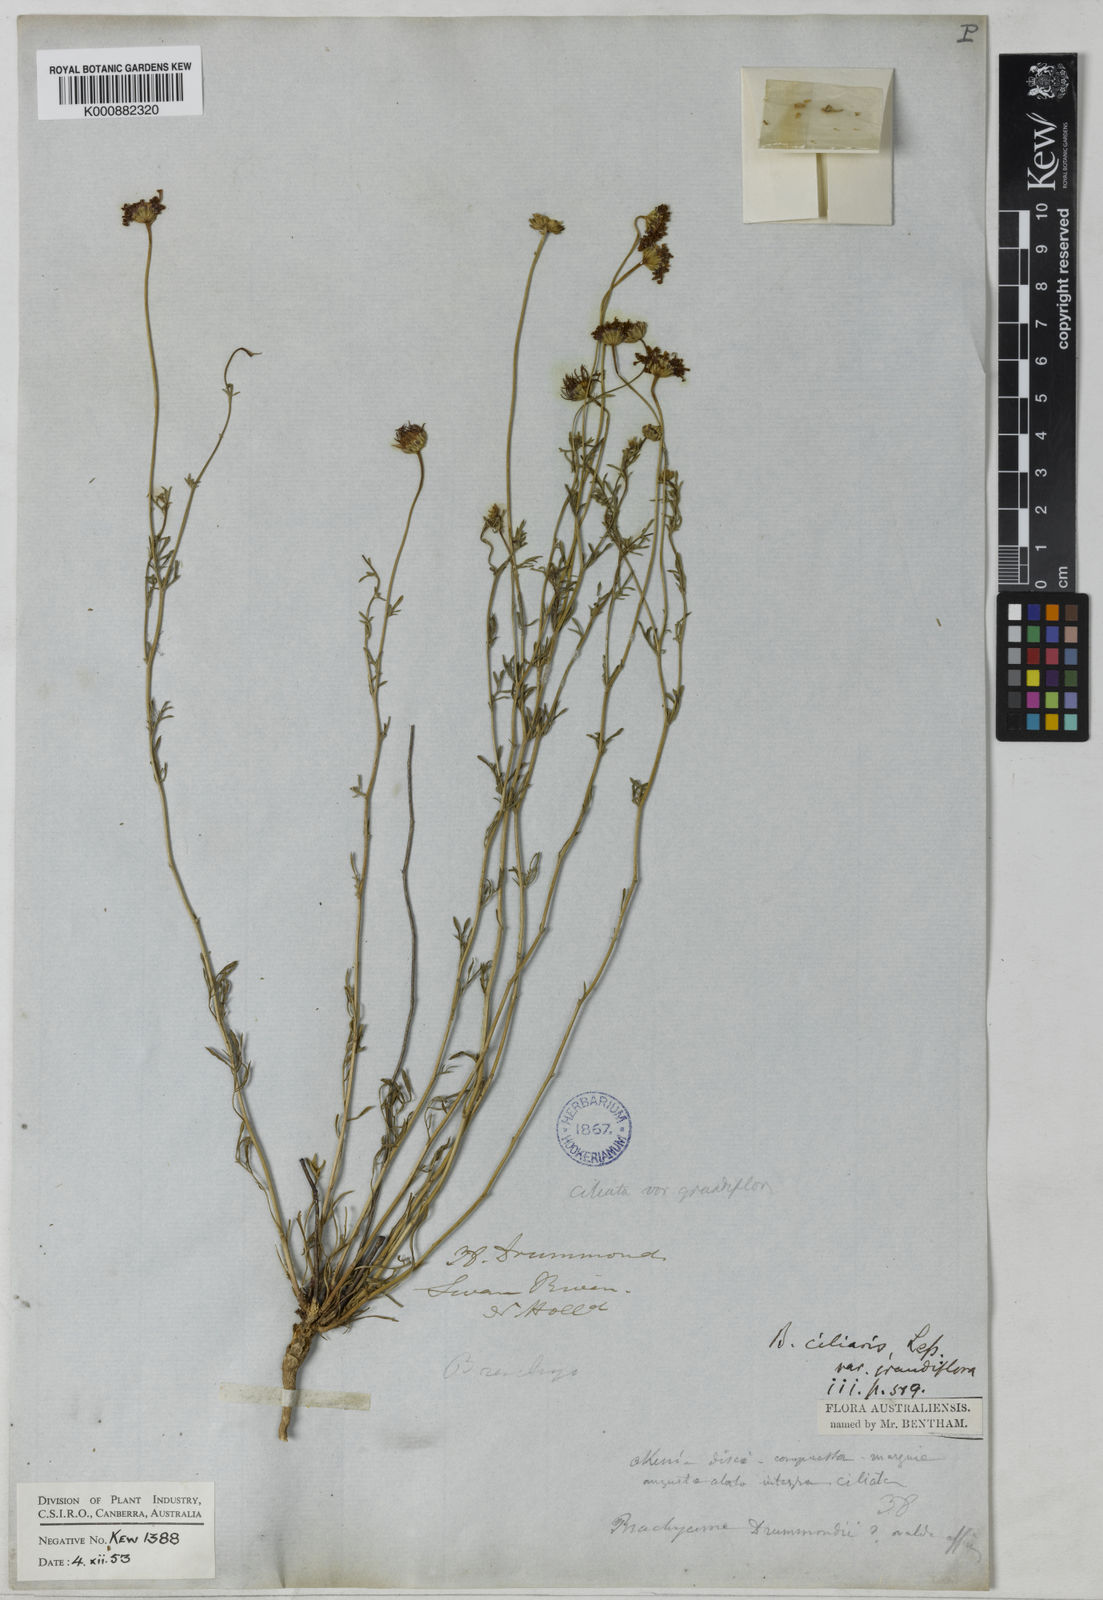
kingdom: Plantae
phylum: Tracheophyta
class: Magnoliopsida
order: Asterales
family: Asteraceae
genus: Brachyscome
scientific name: Brachyscome ciliaris
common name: Variable daisy
